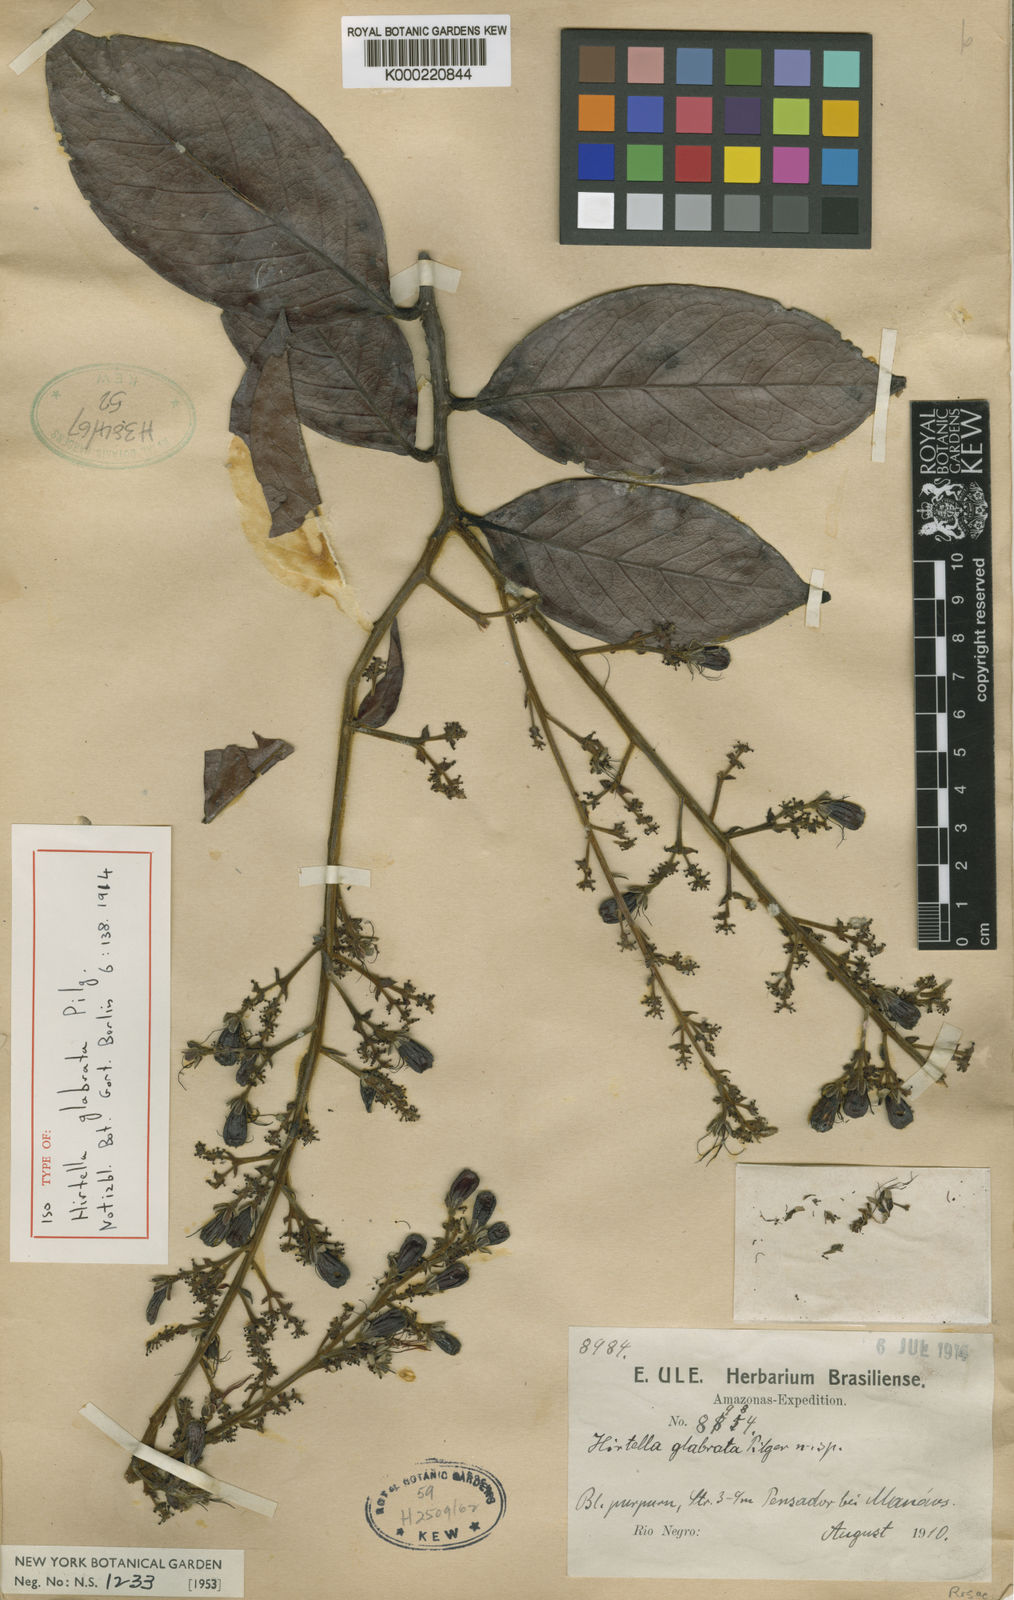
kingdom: Plantae
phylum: Tracheophyta
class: Magnoliopsida
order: Malpighiales
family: Chrysobalanaceae
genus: Hirtella
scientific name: Hirtella glabrata
